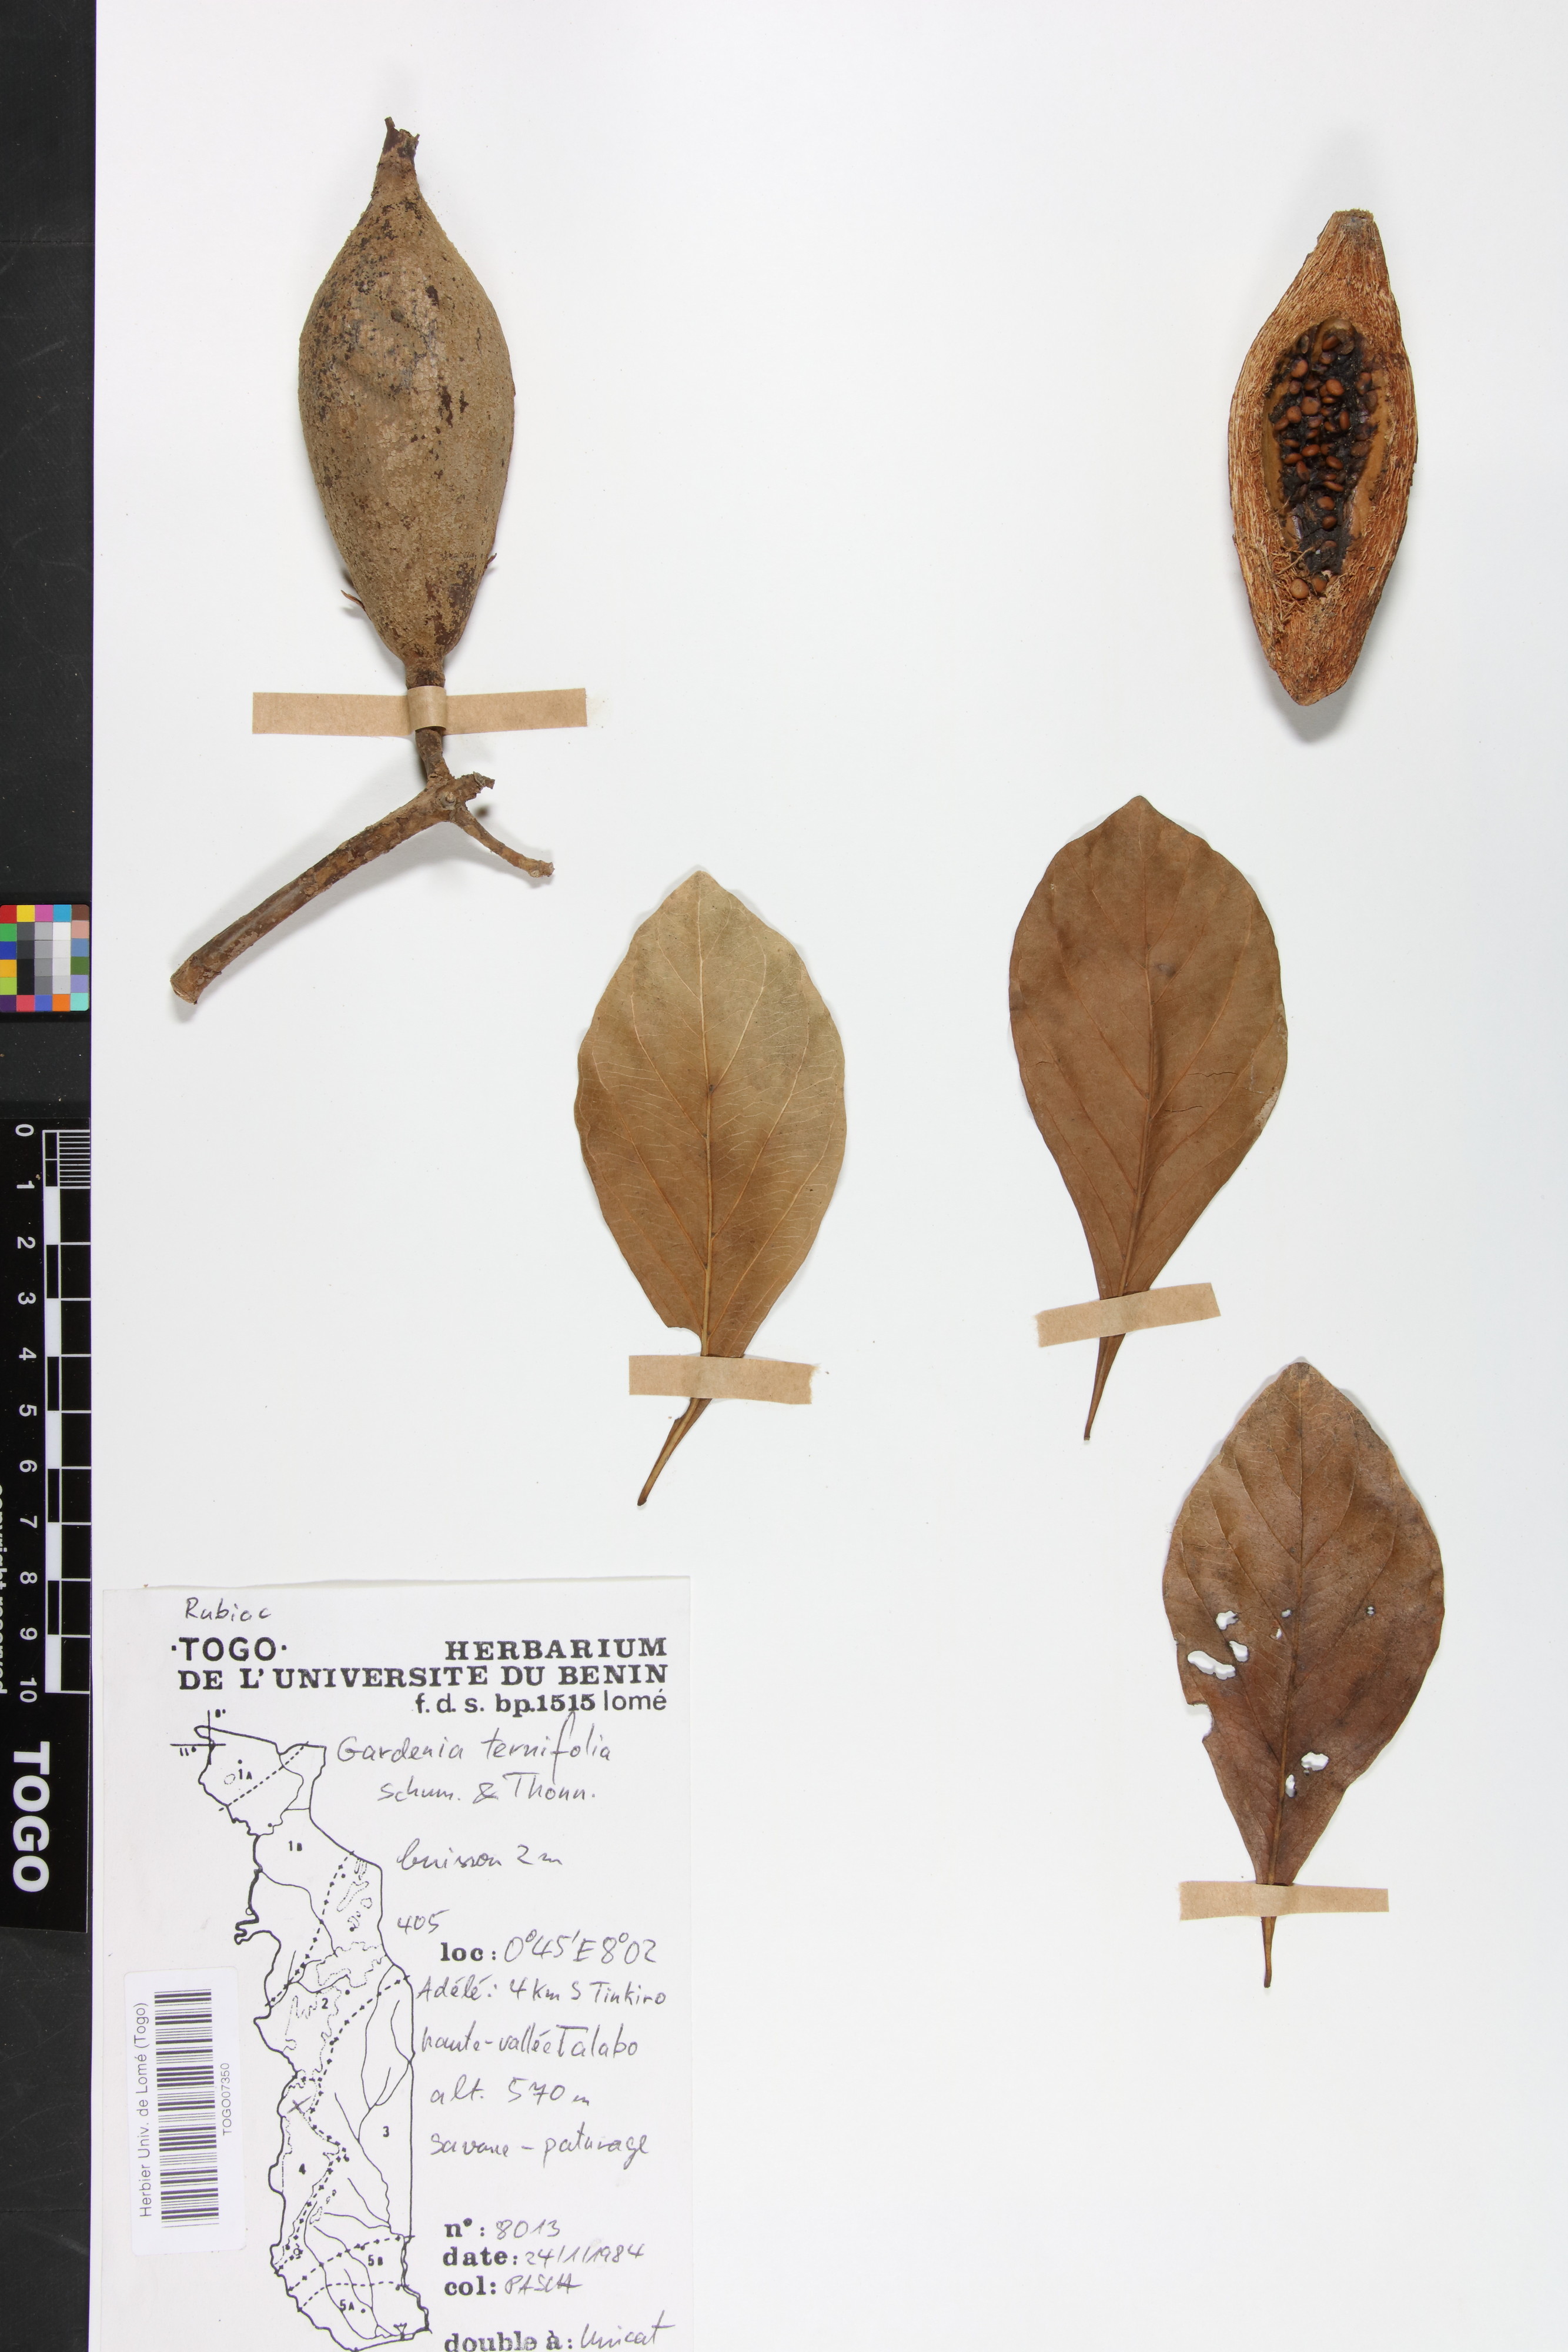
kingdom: Plantae
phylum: Tracheophyta
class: Magnoliopsida
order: Gentianales
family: Rubiaceae
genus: Gardenia
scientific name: Gardenia ternifolia
